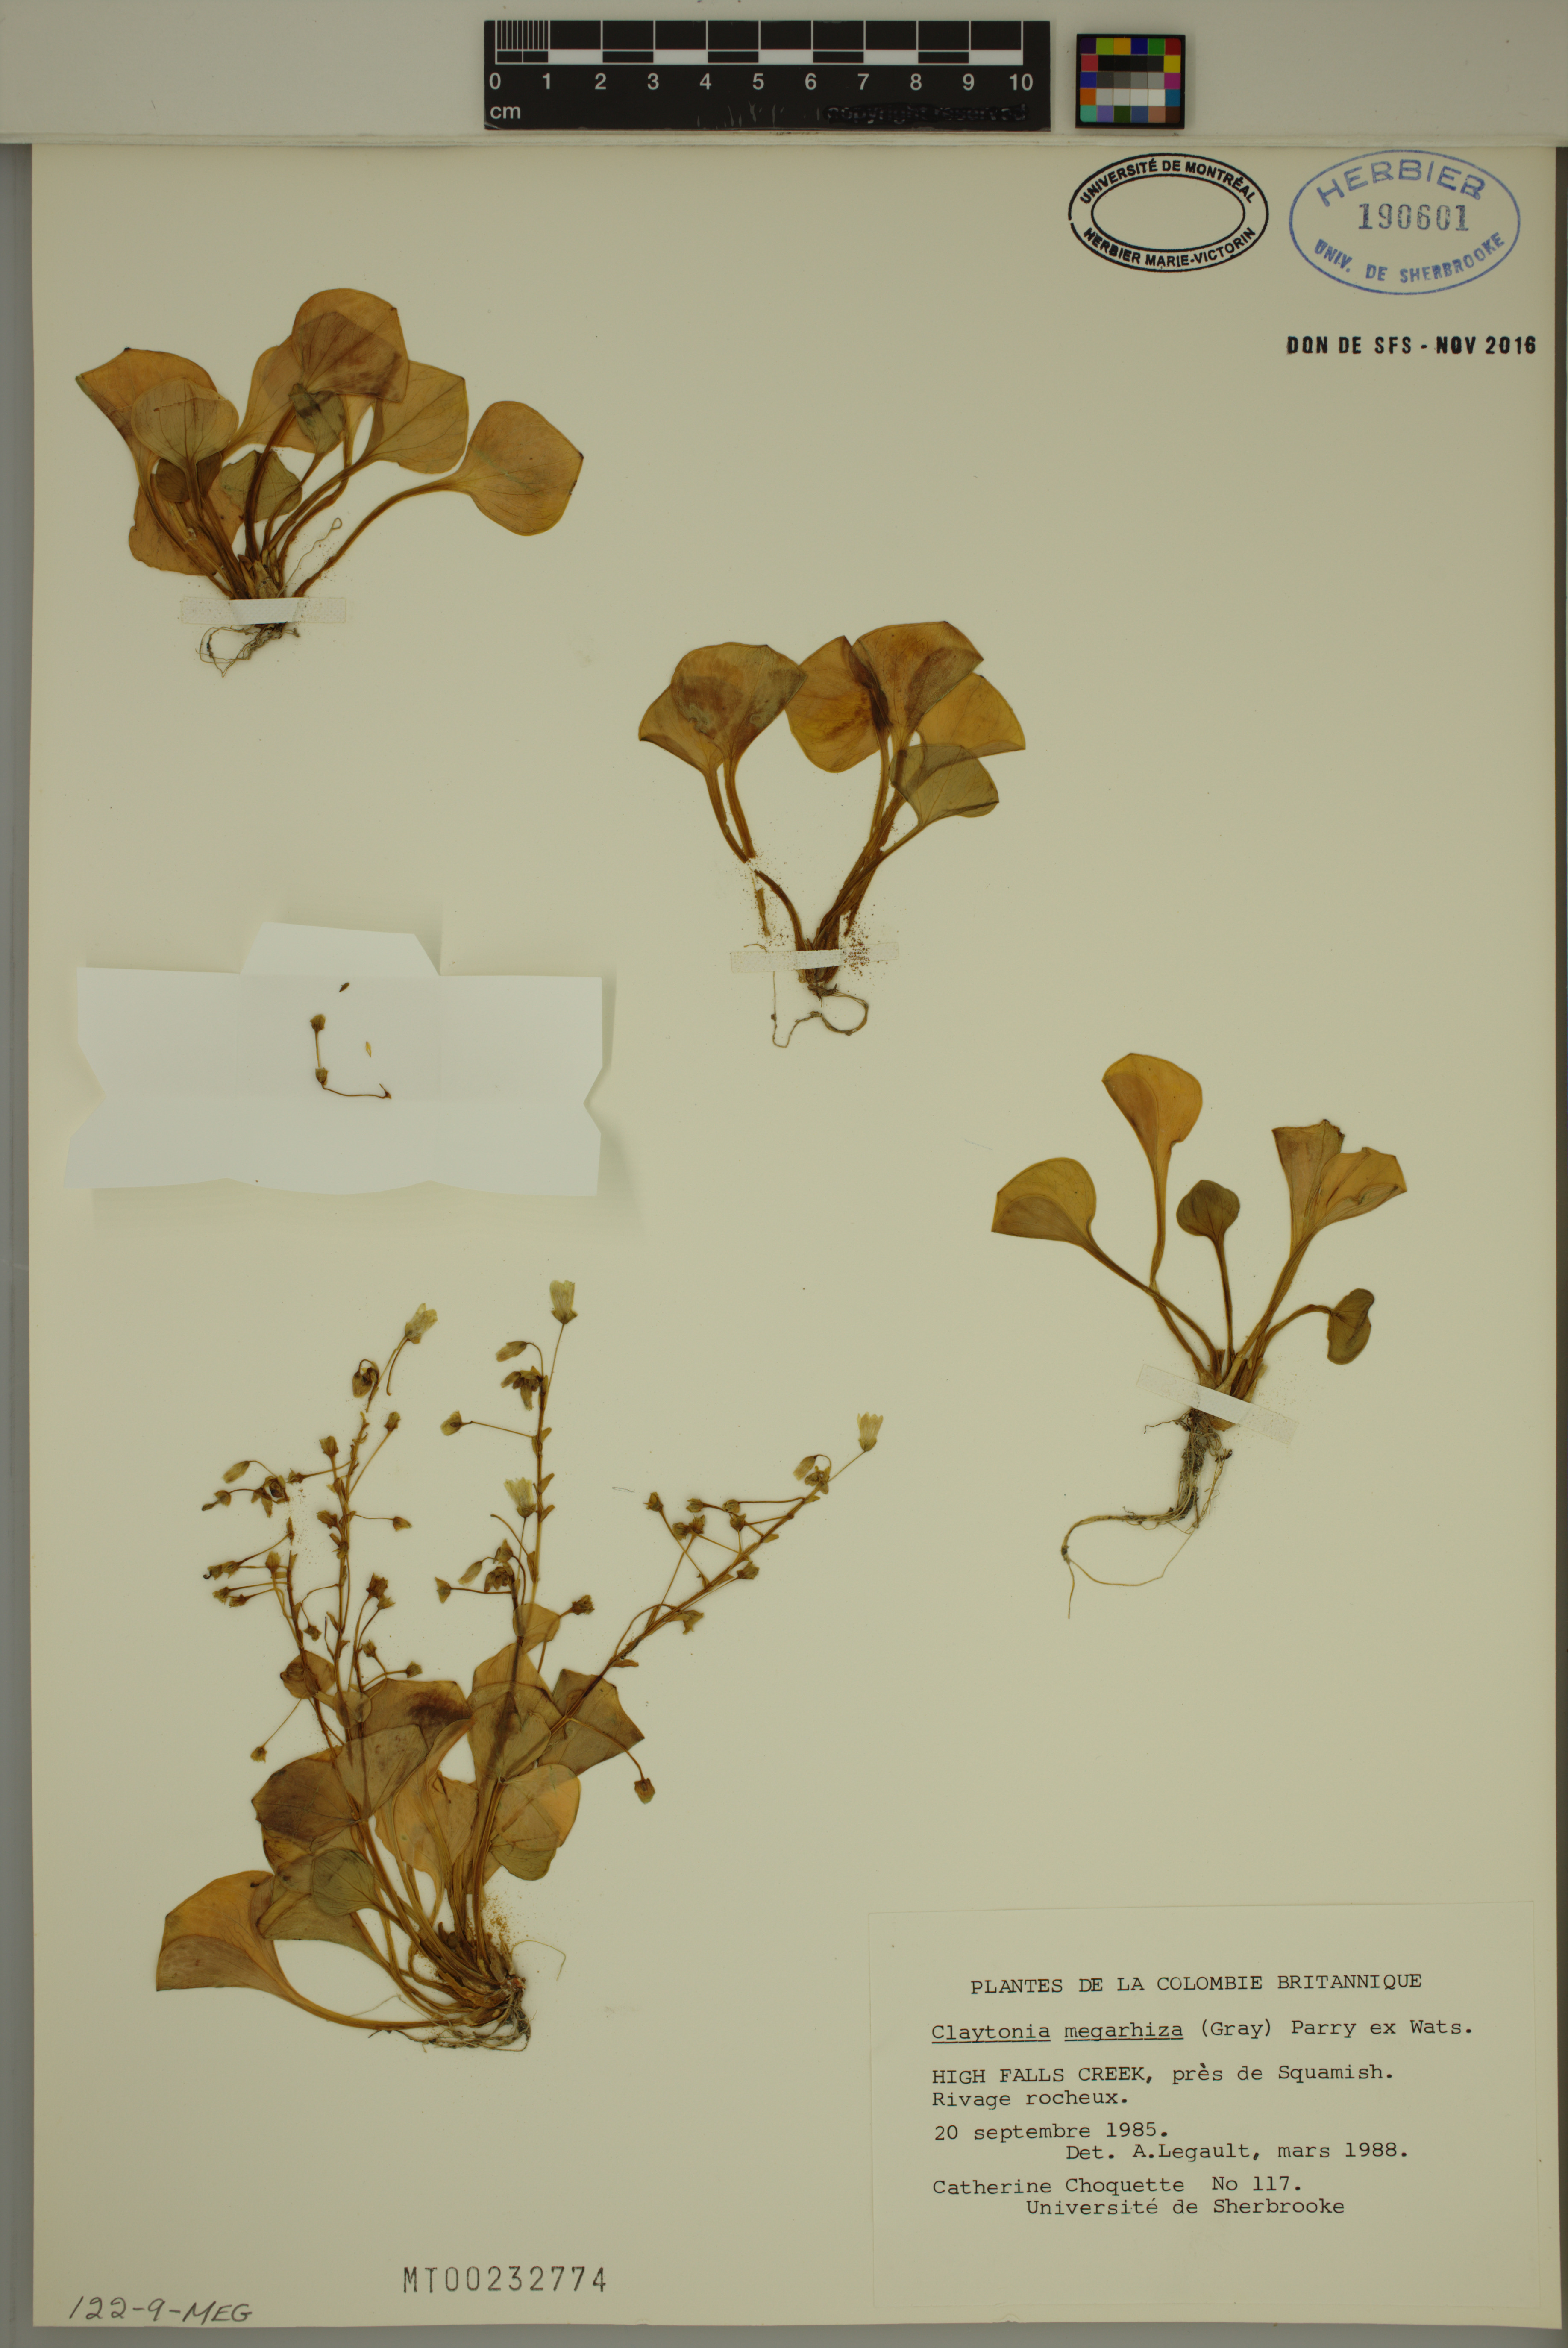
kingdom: Plantae
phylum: Tracheophyta
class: Magnoliopsida
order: Caryophyllales
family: Montiaceae
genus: Claytonia
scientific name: Claytonia megarhiza
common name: Alpine spring beauty
